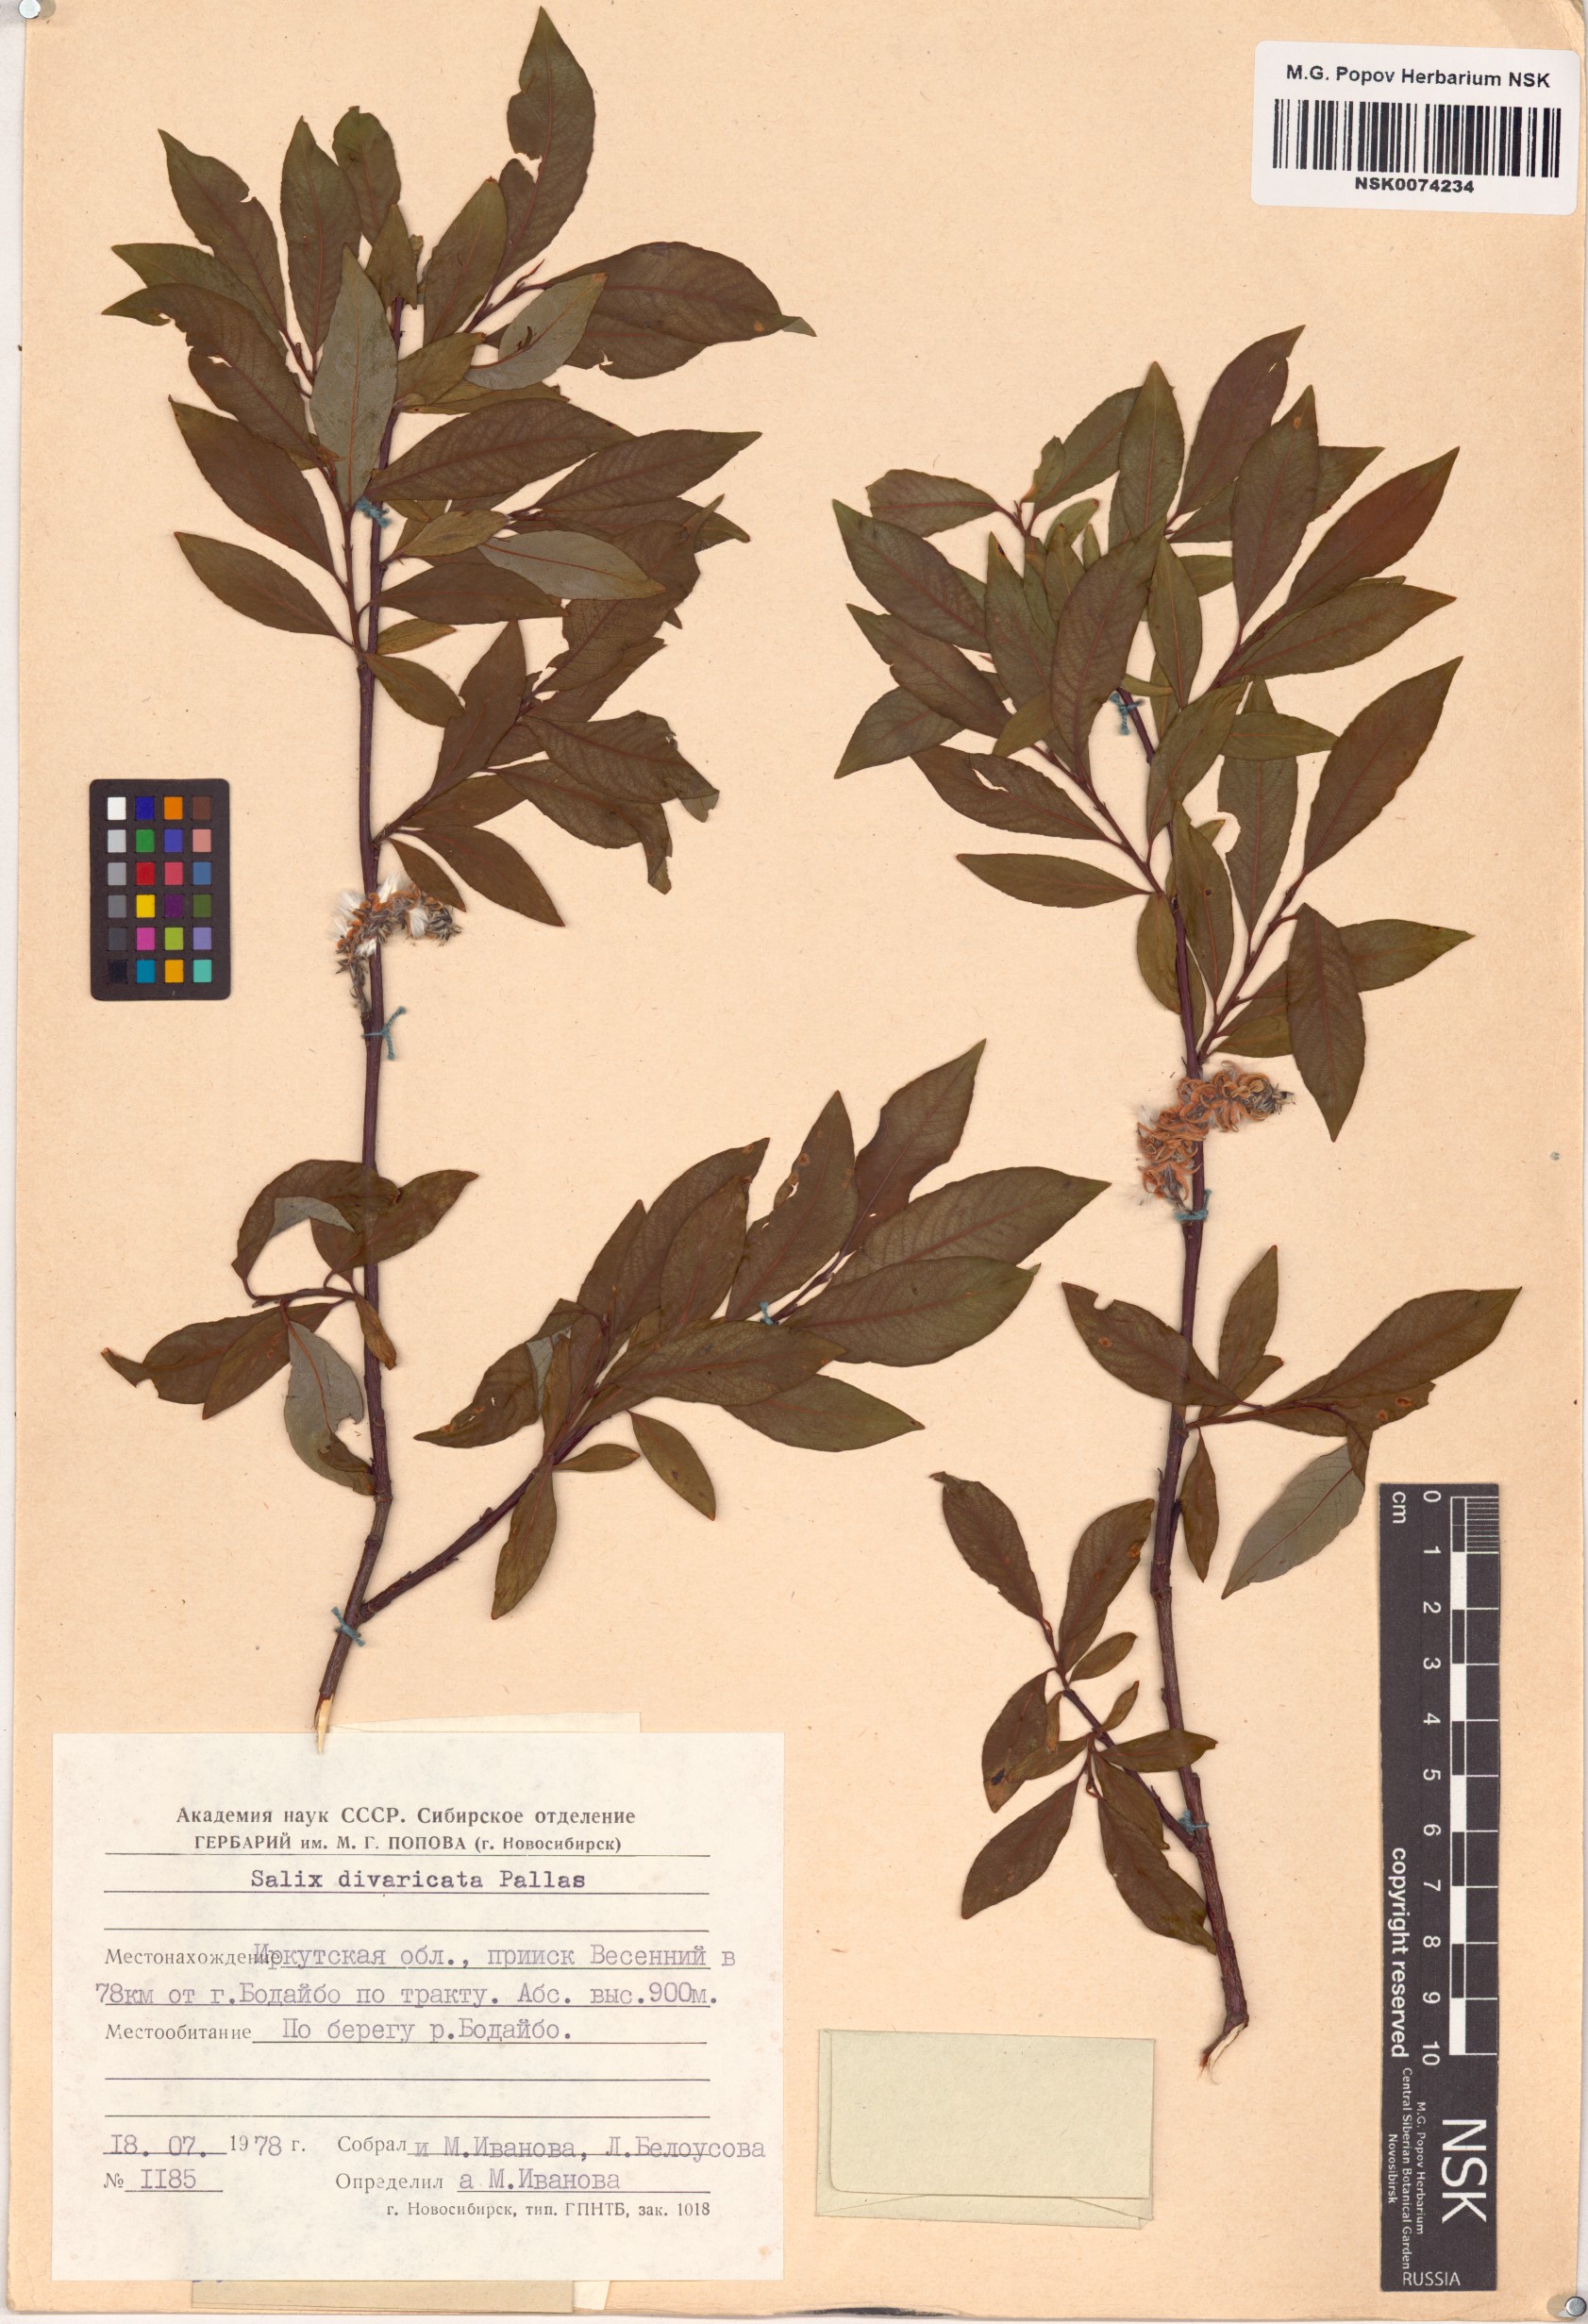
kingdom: Plantae
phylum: Tracheophyta
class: Magnoliopsida
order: Malpighiales
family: Salicaceae
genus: Salix
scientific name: Salix divaricata
